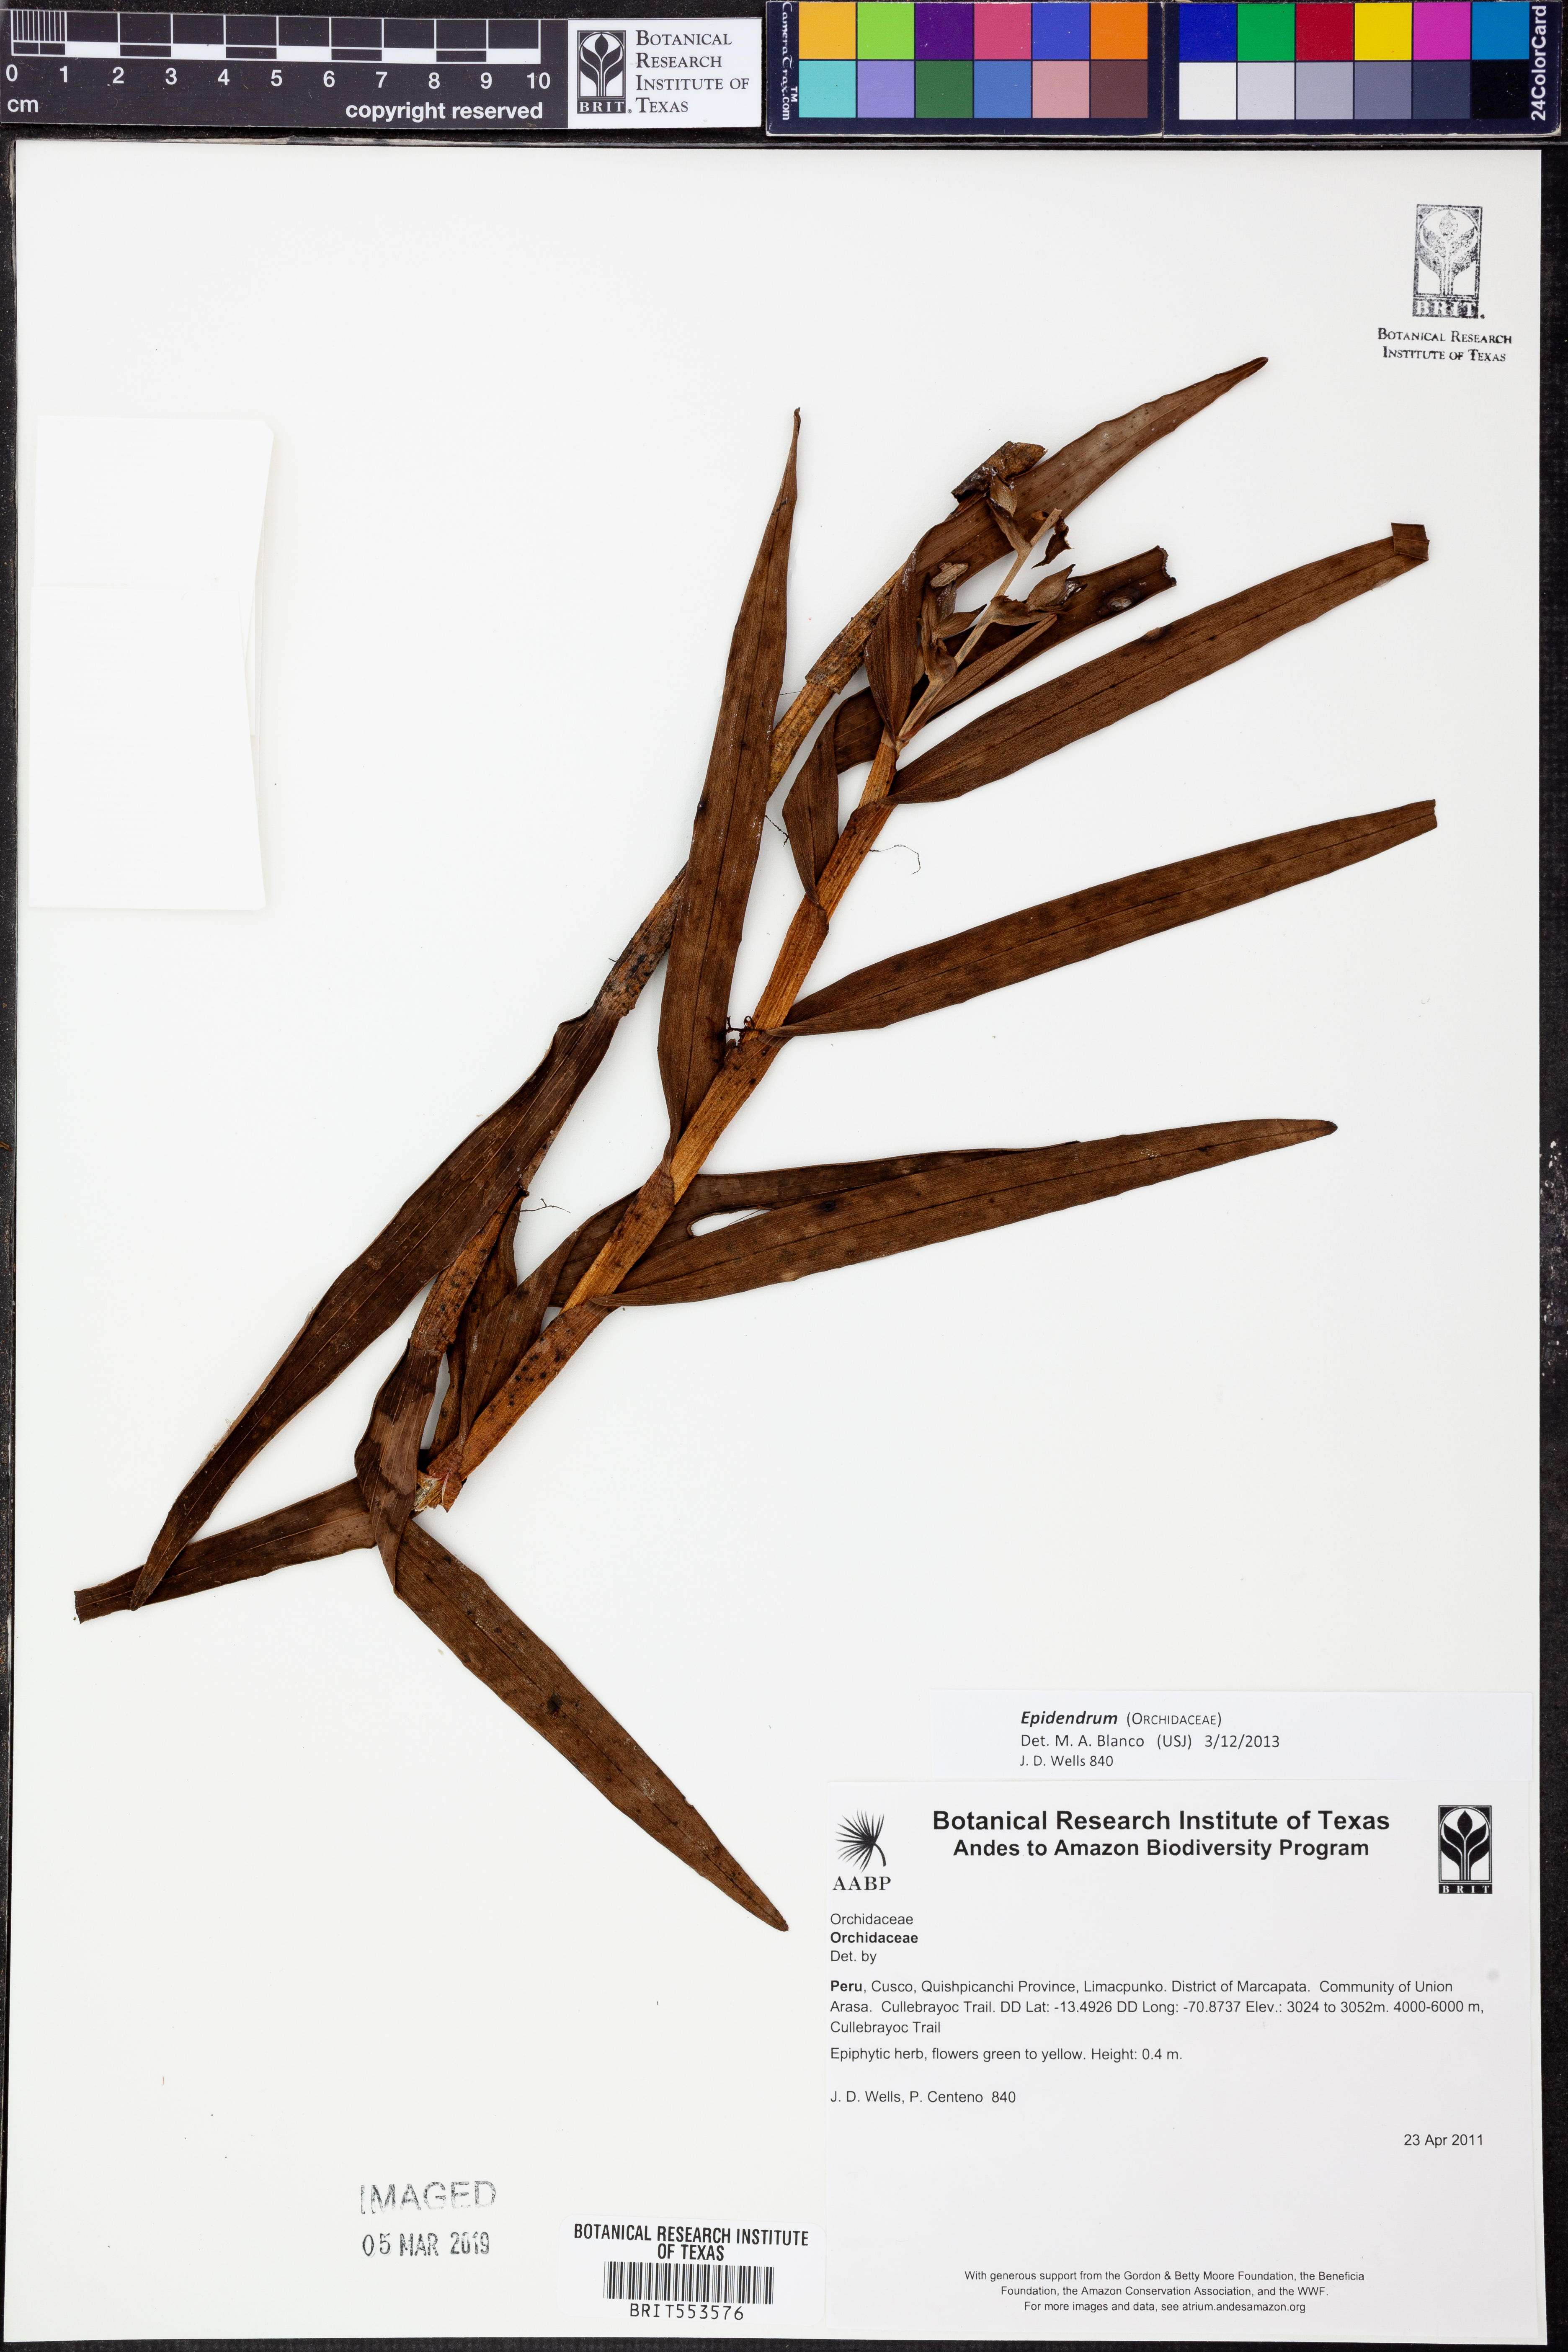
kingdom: Plantae
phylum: Tracheophyta
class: Liliopsida
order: Asparagales
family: Orchidaceae
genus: Epidendrum
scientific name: Epidendrum
